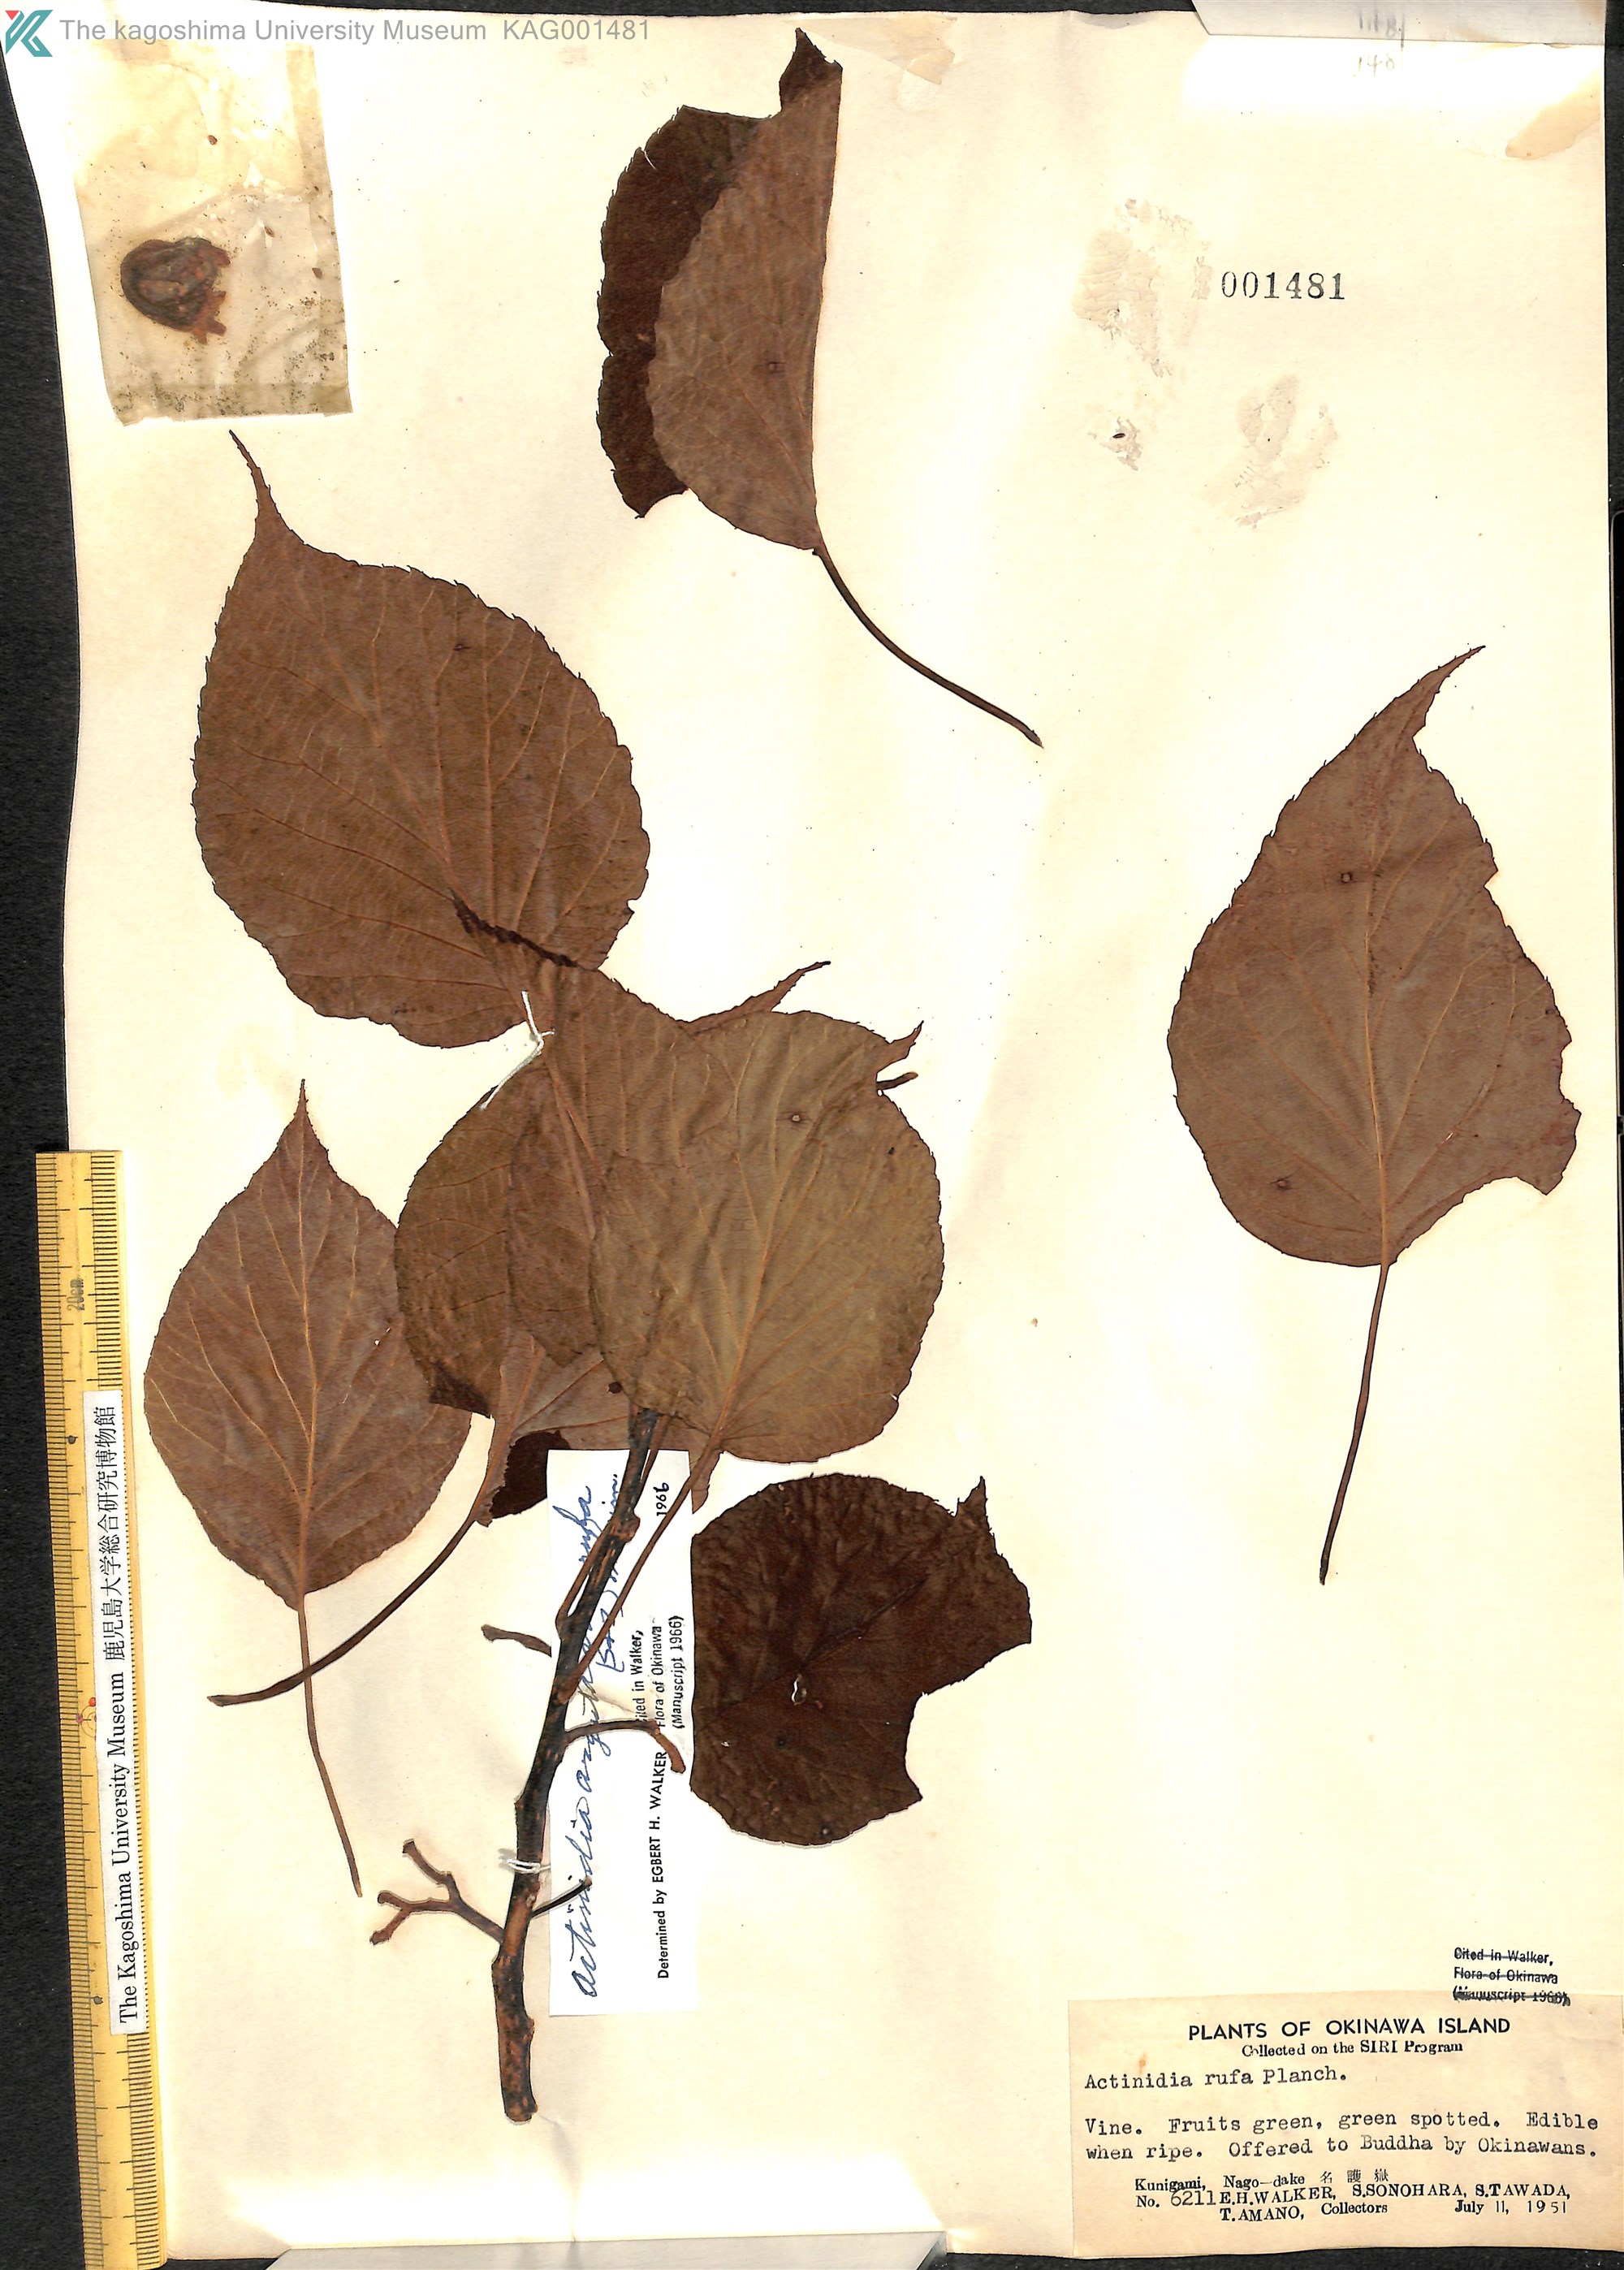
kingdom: Plantae
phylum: Tracheophyta
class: Magnoliopsida
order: Ericales
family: Actinidiaceae
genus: Actinidia
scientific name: Actinidia rufa
